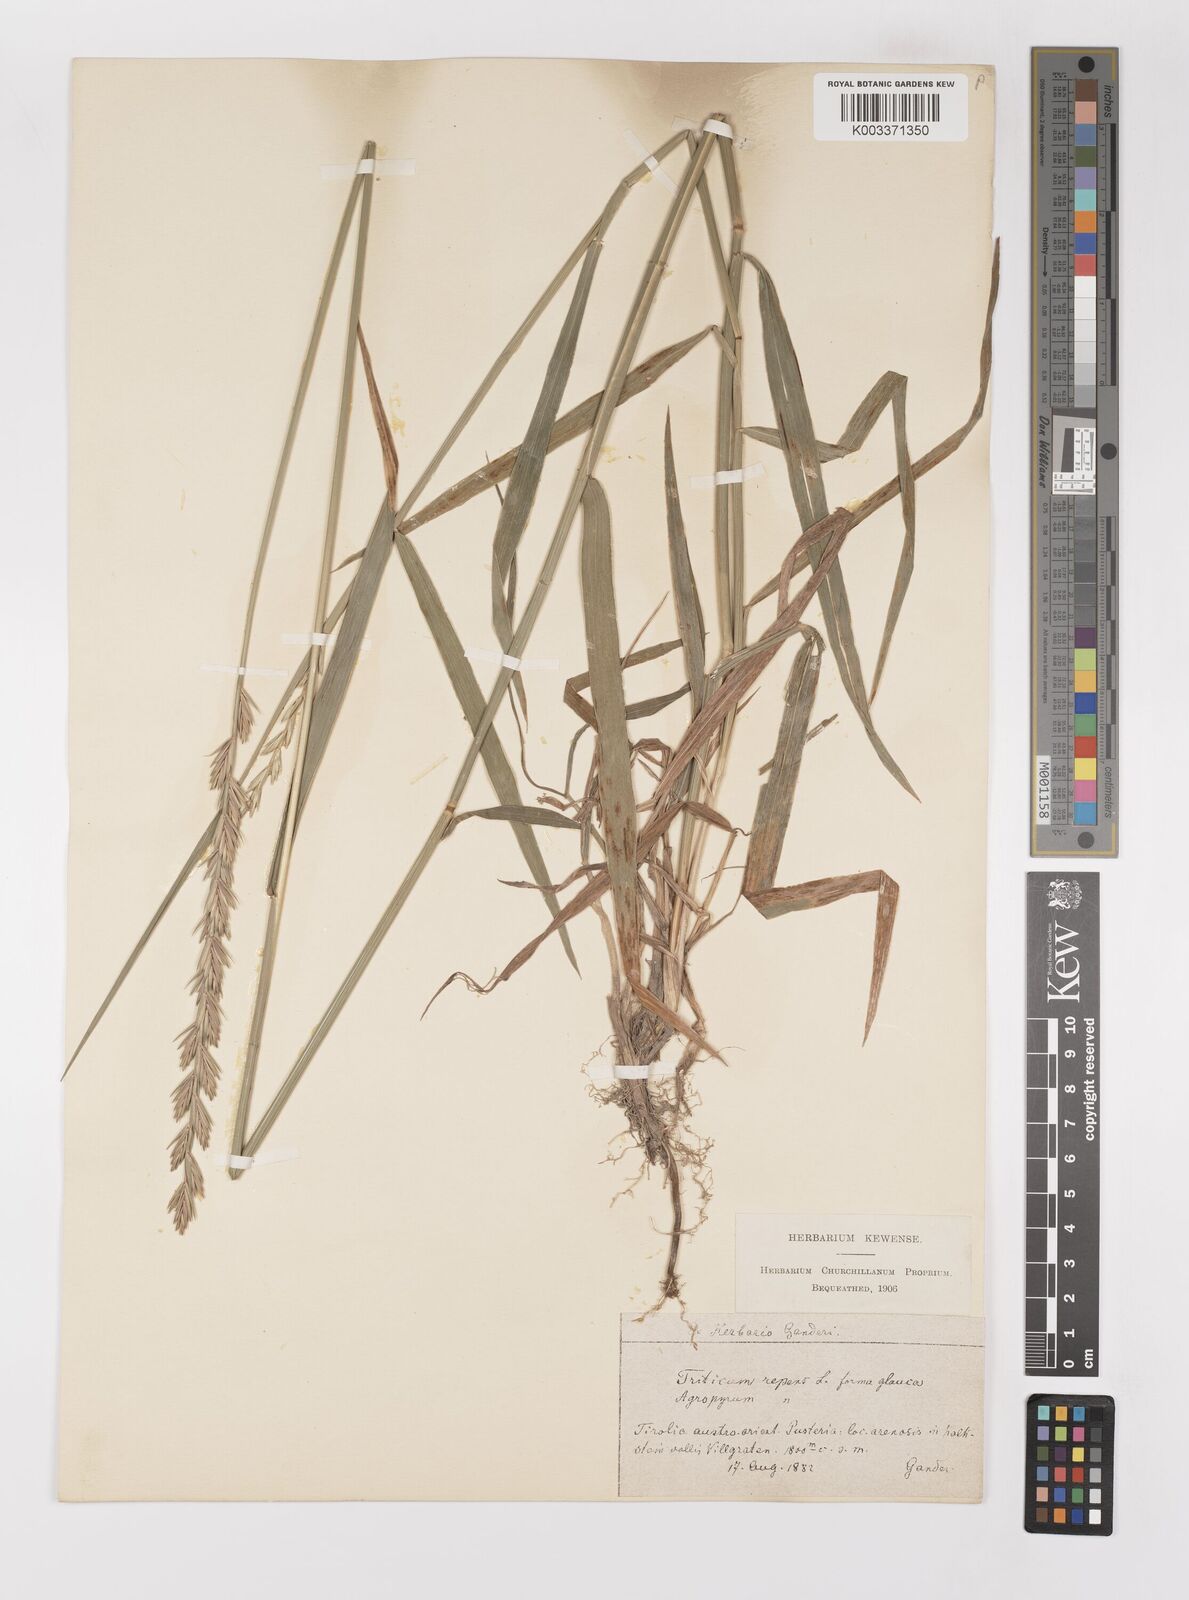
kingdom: Plantae
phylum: Tracheophyta
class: Liliopsida
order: Poales
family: Poaceae
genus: Elymus
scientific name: Elymus repens
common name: Quackgrass
